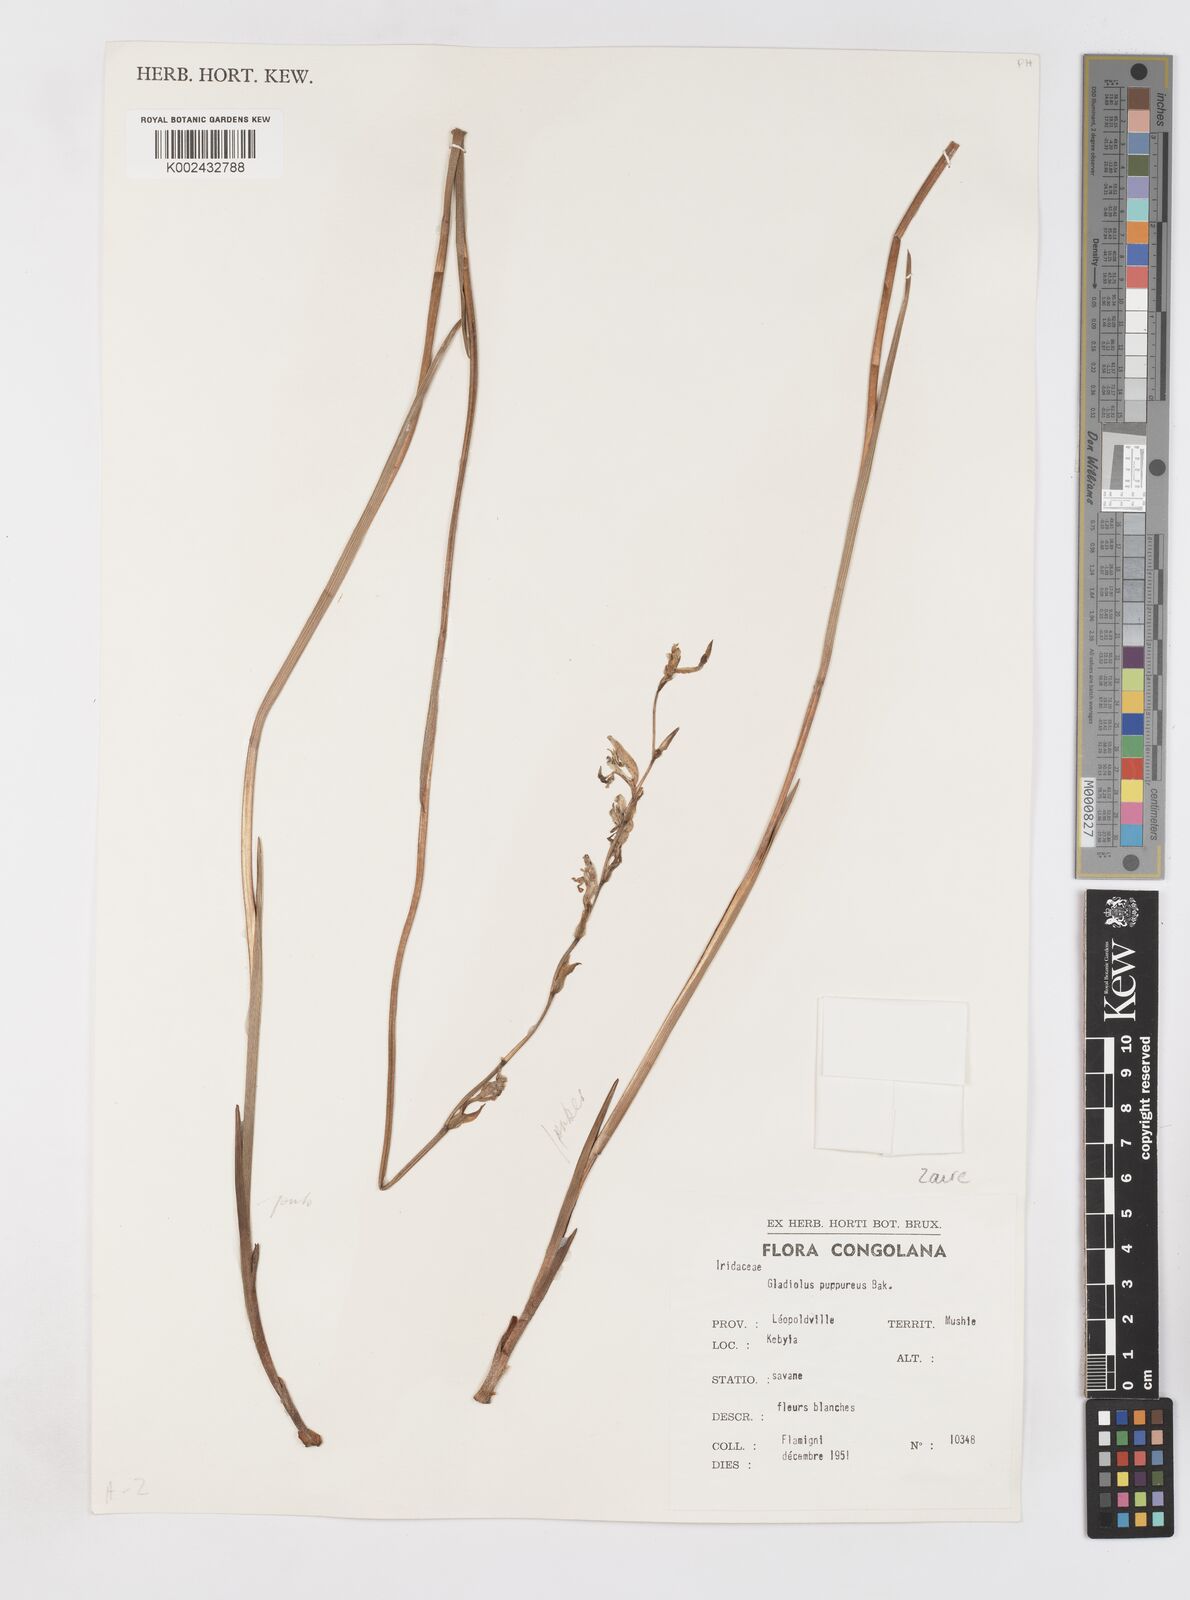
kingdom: Plantae
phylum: Tracheophyta
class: Liliopsida
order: Asparagales
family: Iridaceae
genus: Gladiolus
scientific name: Gladiolus unguiculatus
